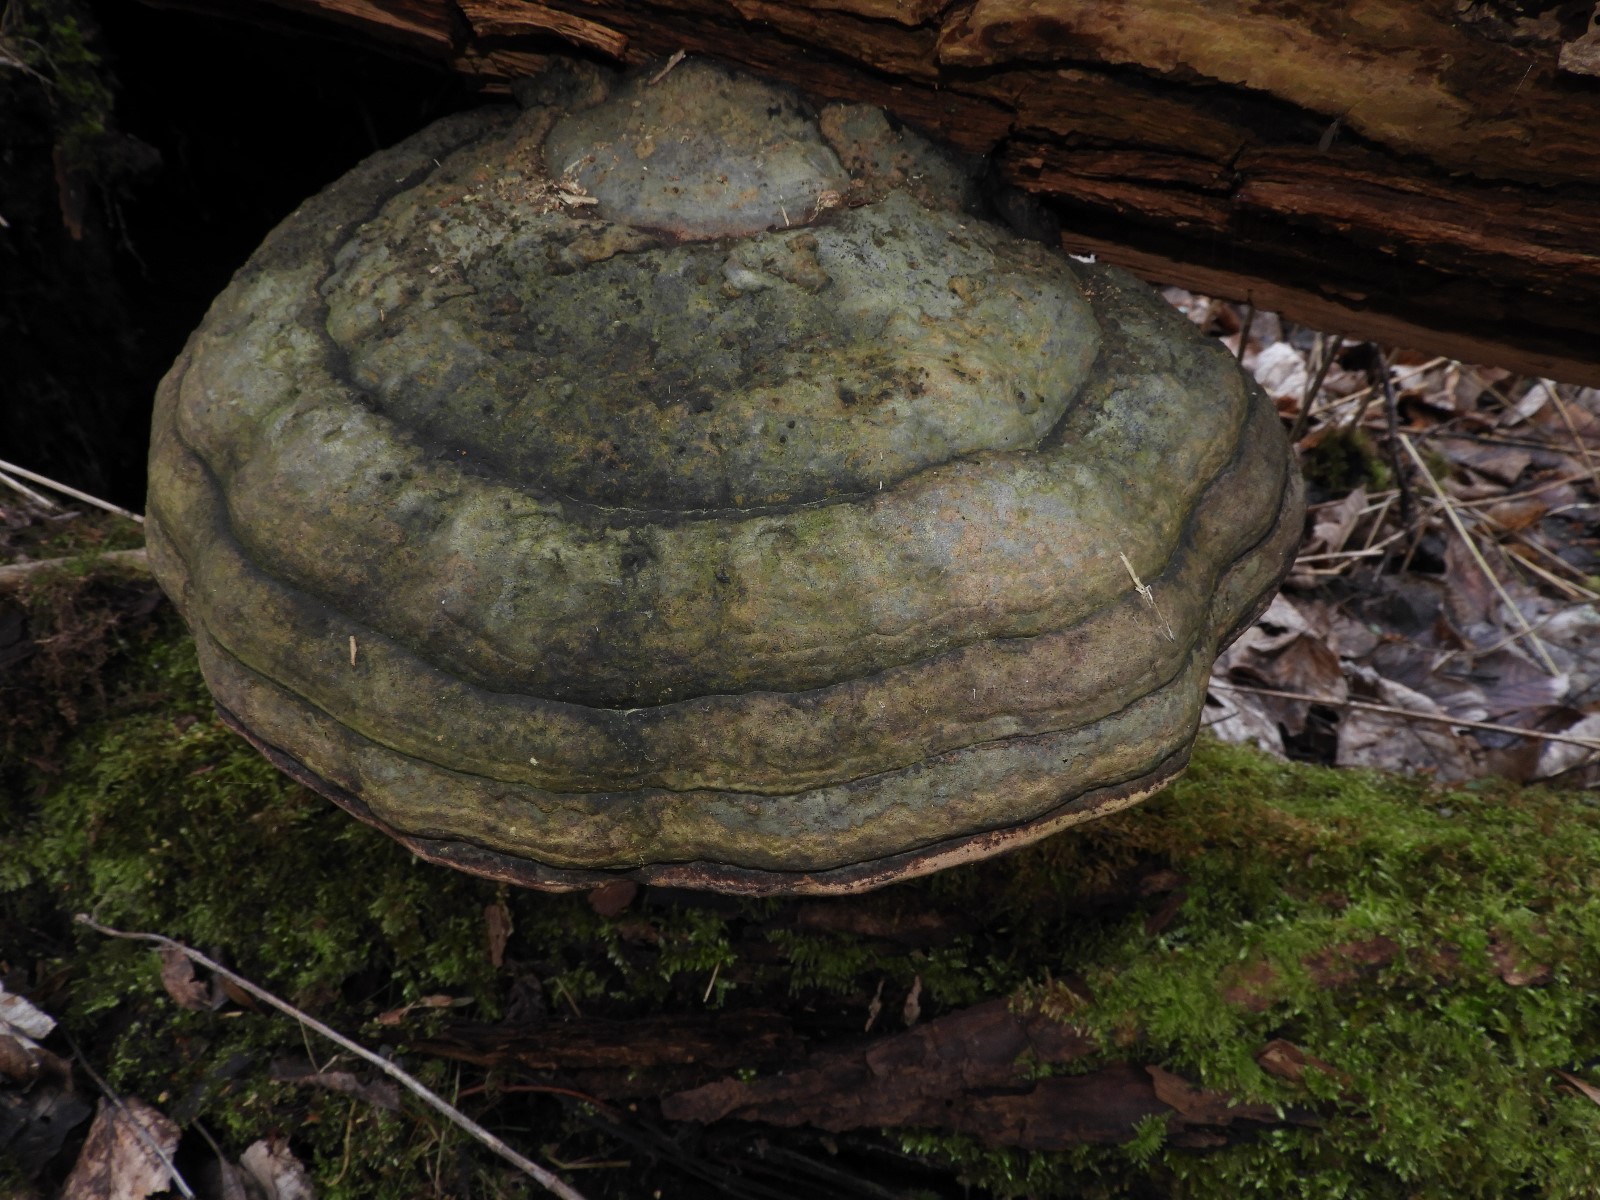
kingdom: Fungi
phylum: Basidiomycota
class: Agaricomycetes
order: Polyporales
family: Polyporaceae
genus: Fomes
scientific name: Fomes fomentarius
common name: tøndersvamp
